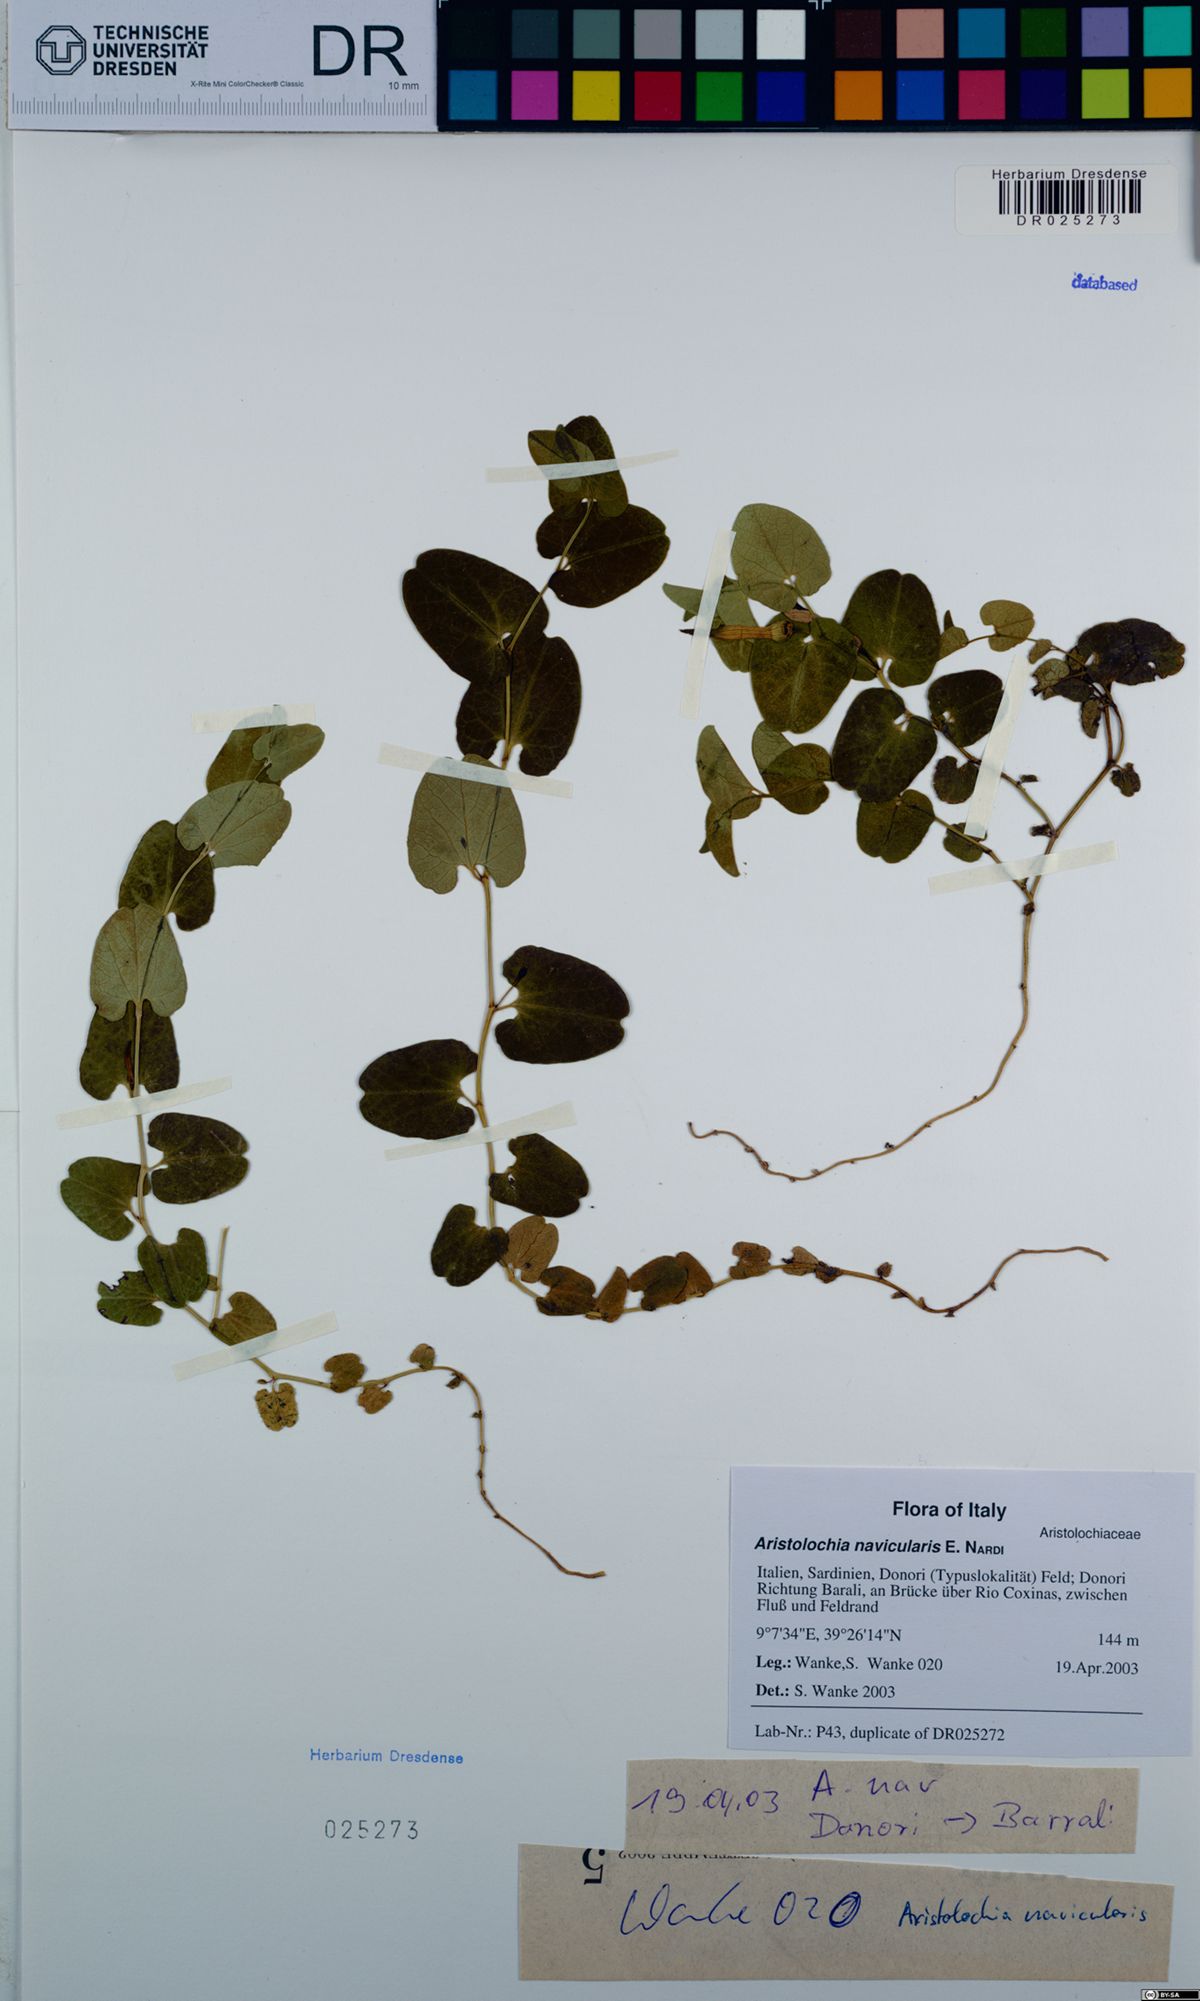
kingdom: Plantae
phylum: Tracheophyta
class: Magnoliopsida
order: Piperales
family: Aristolochiaceae
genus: Aristolochia
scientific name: Aristolochia navicularis
